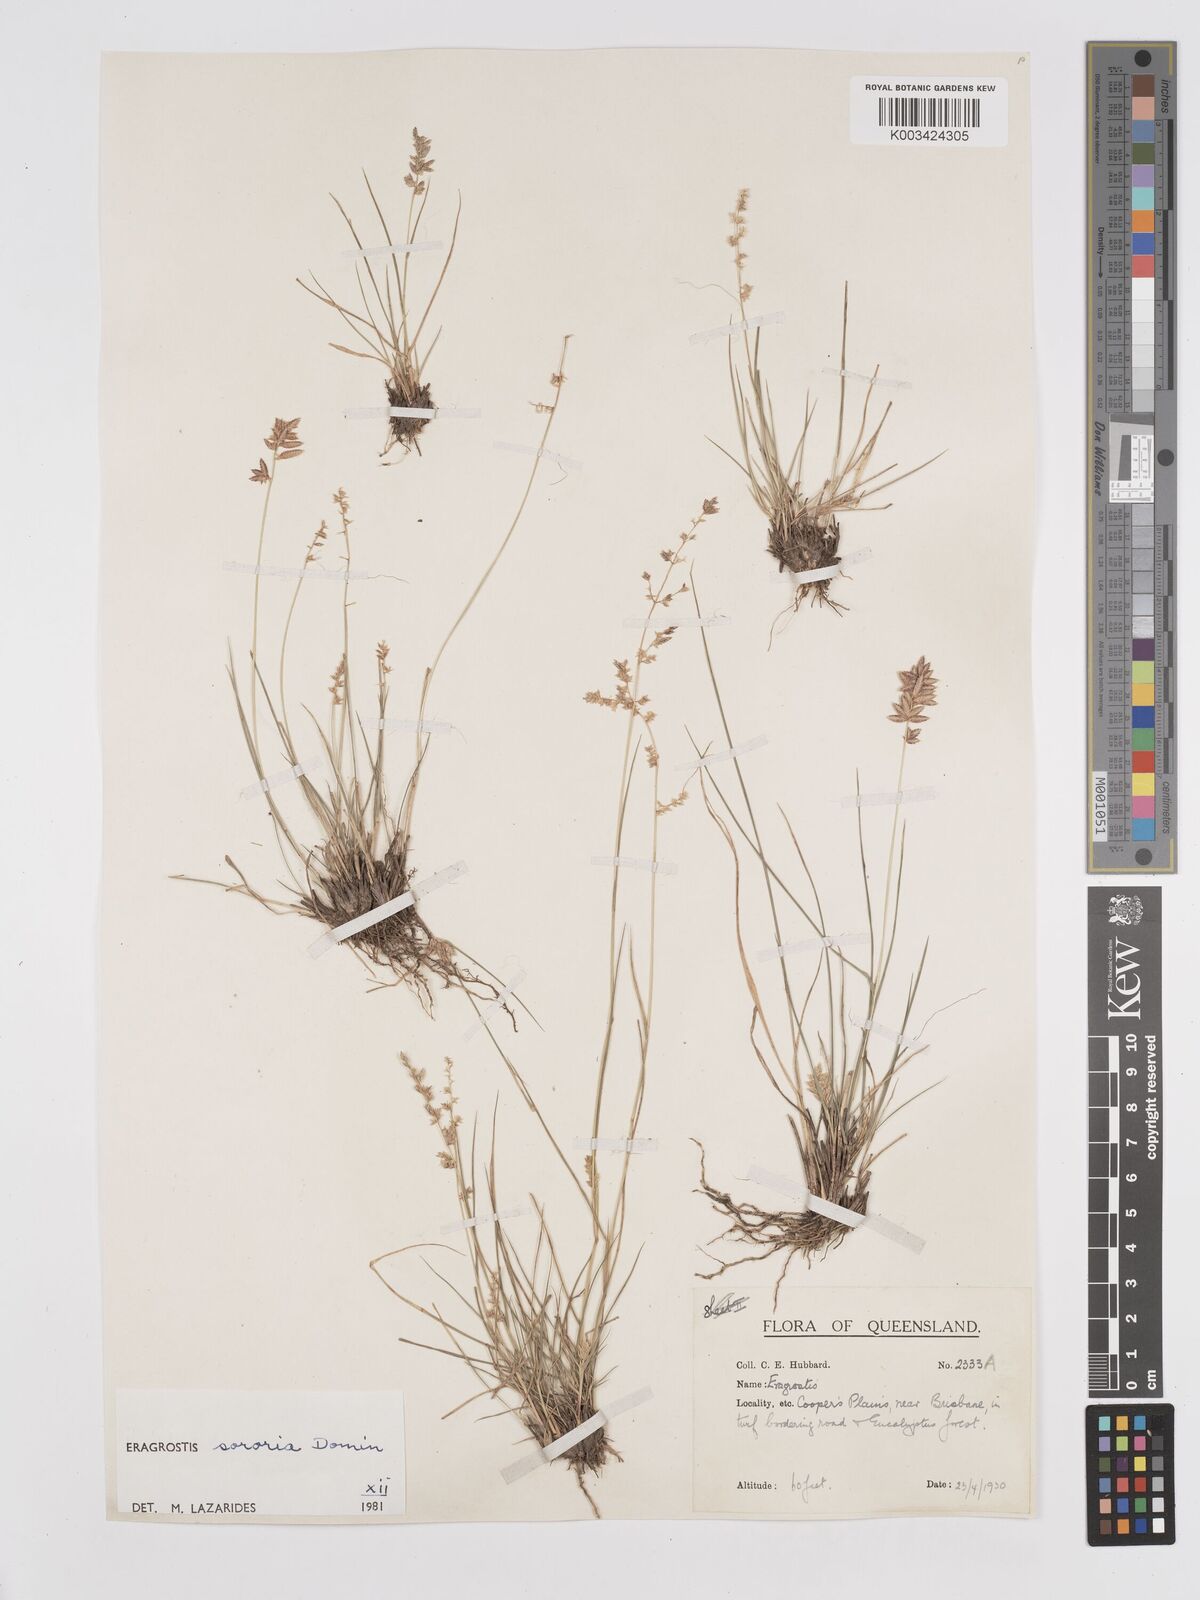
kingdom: Plantae
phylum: Tracheophyta
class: Liliopsida
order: Poales
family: Poaceae
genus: Eragrostis
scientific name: Eragrostis sororia
